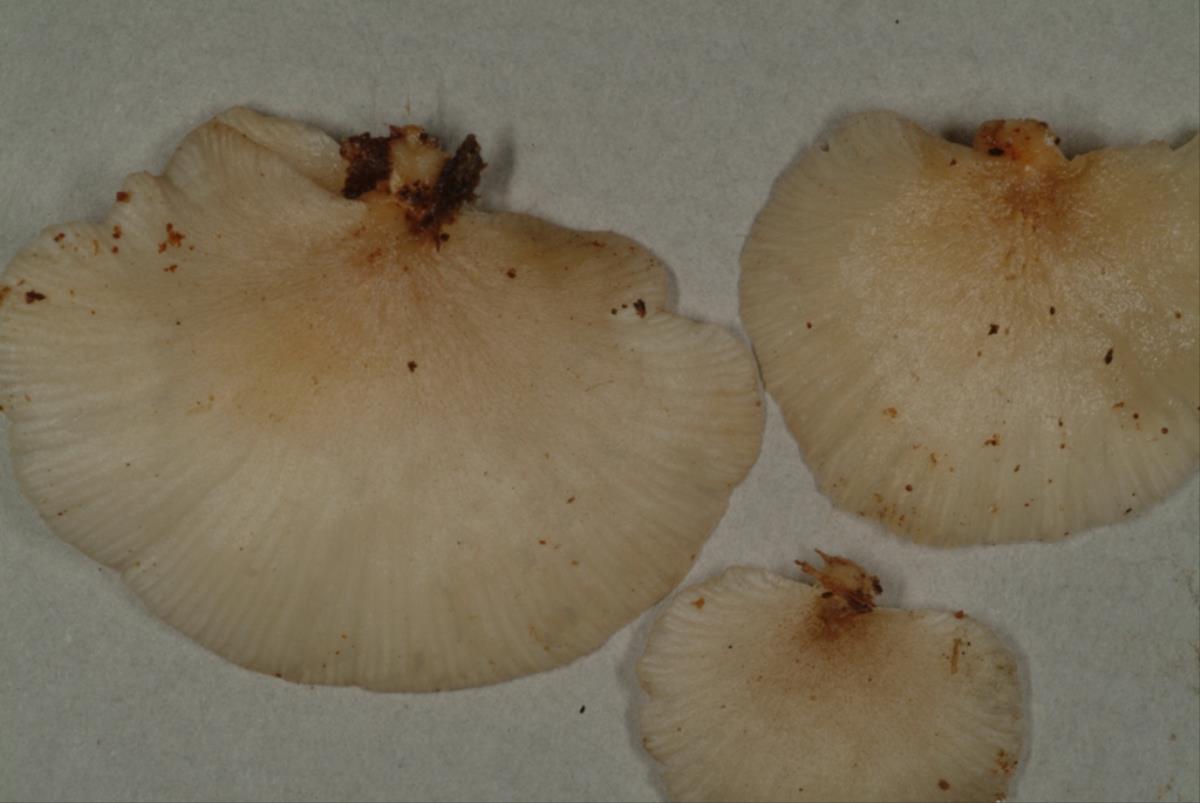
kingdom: Fungi
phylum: Basidiomycota
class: Agaricomycetes
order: Agaricales
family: Pleurotaceae
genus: Pleurotus
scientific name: Pleurotus djamor
